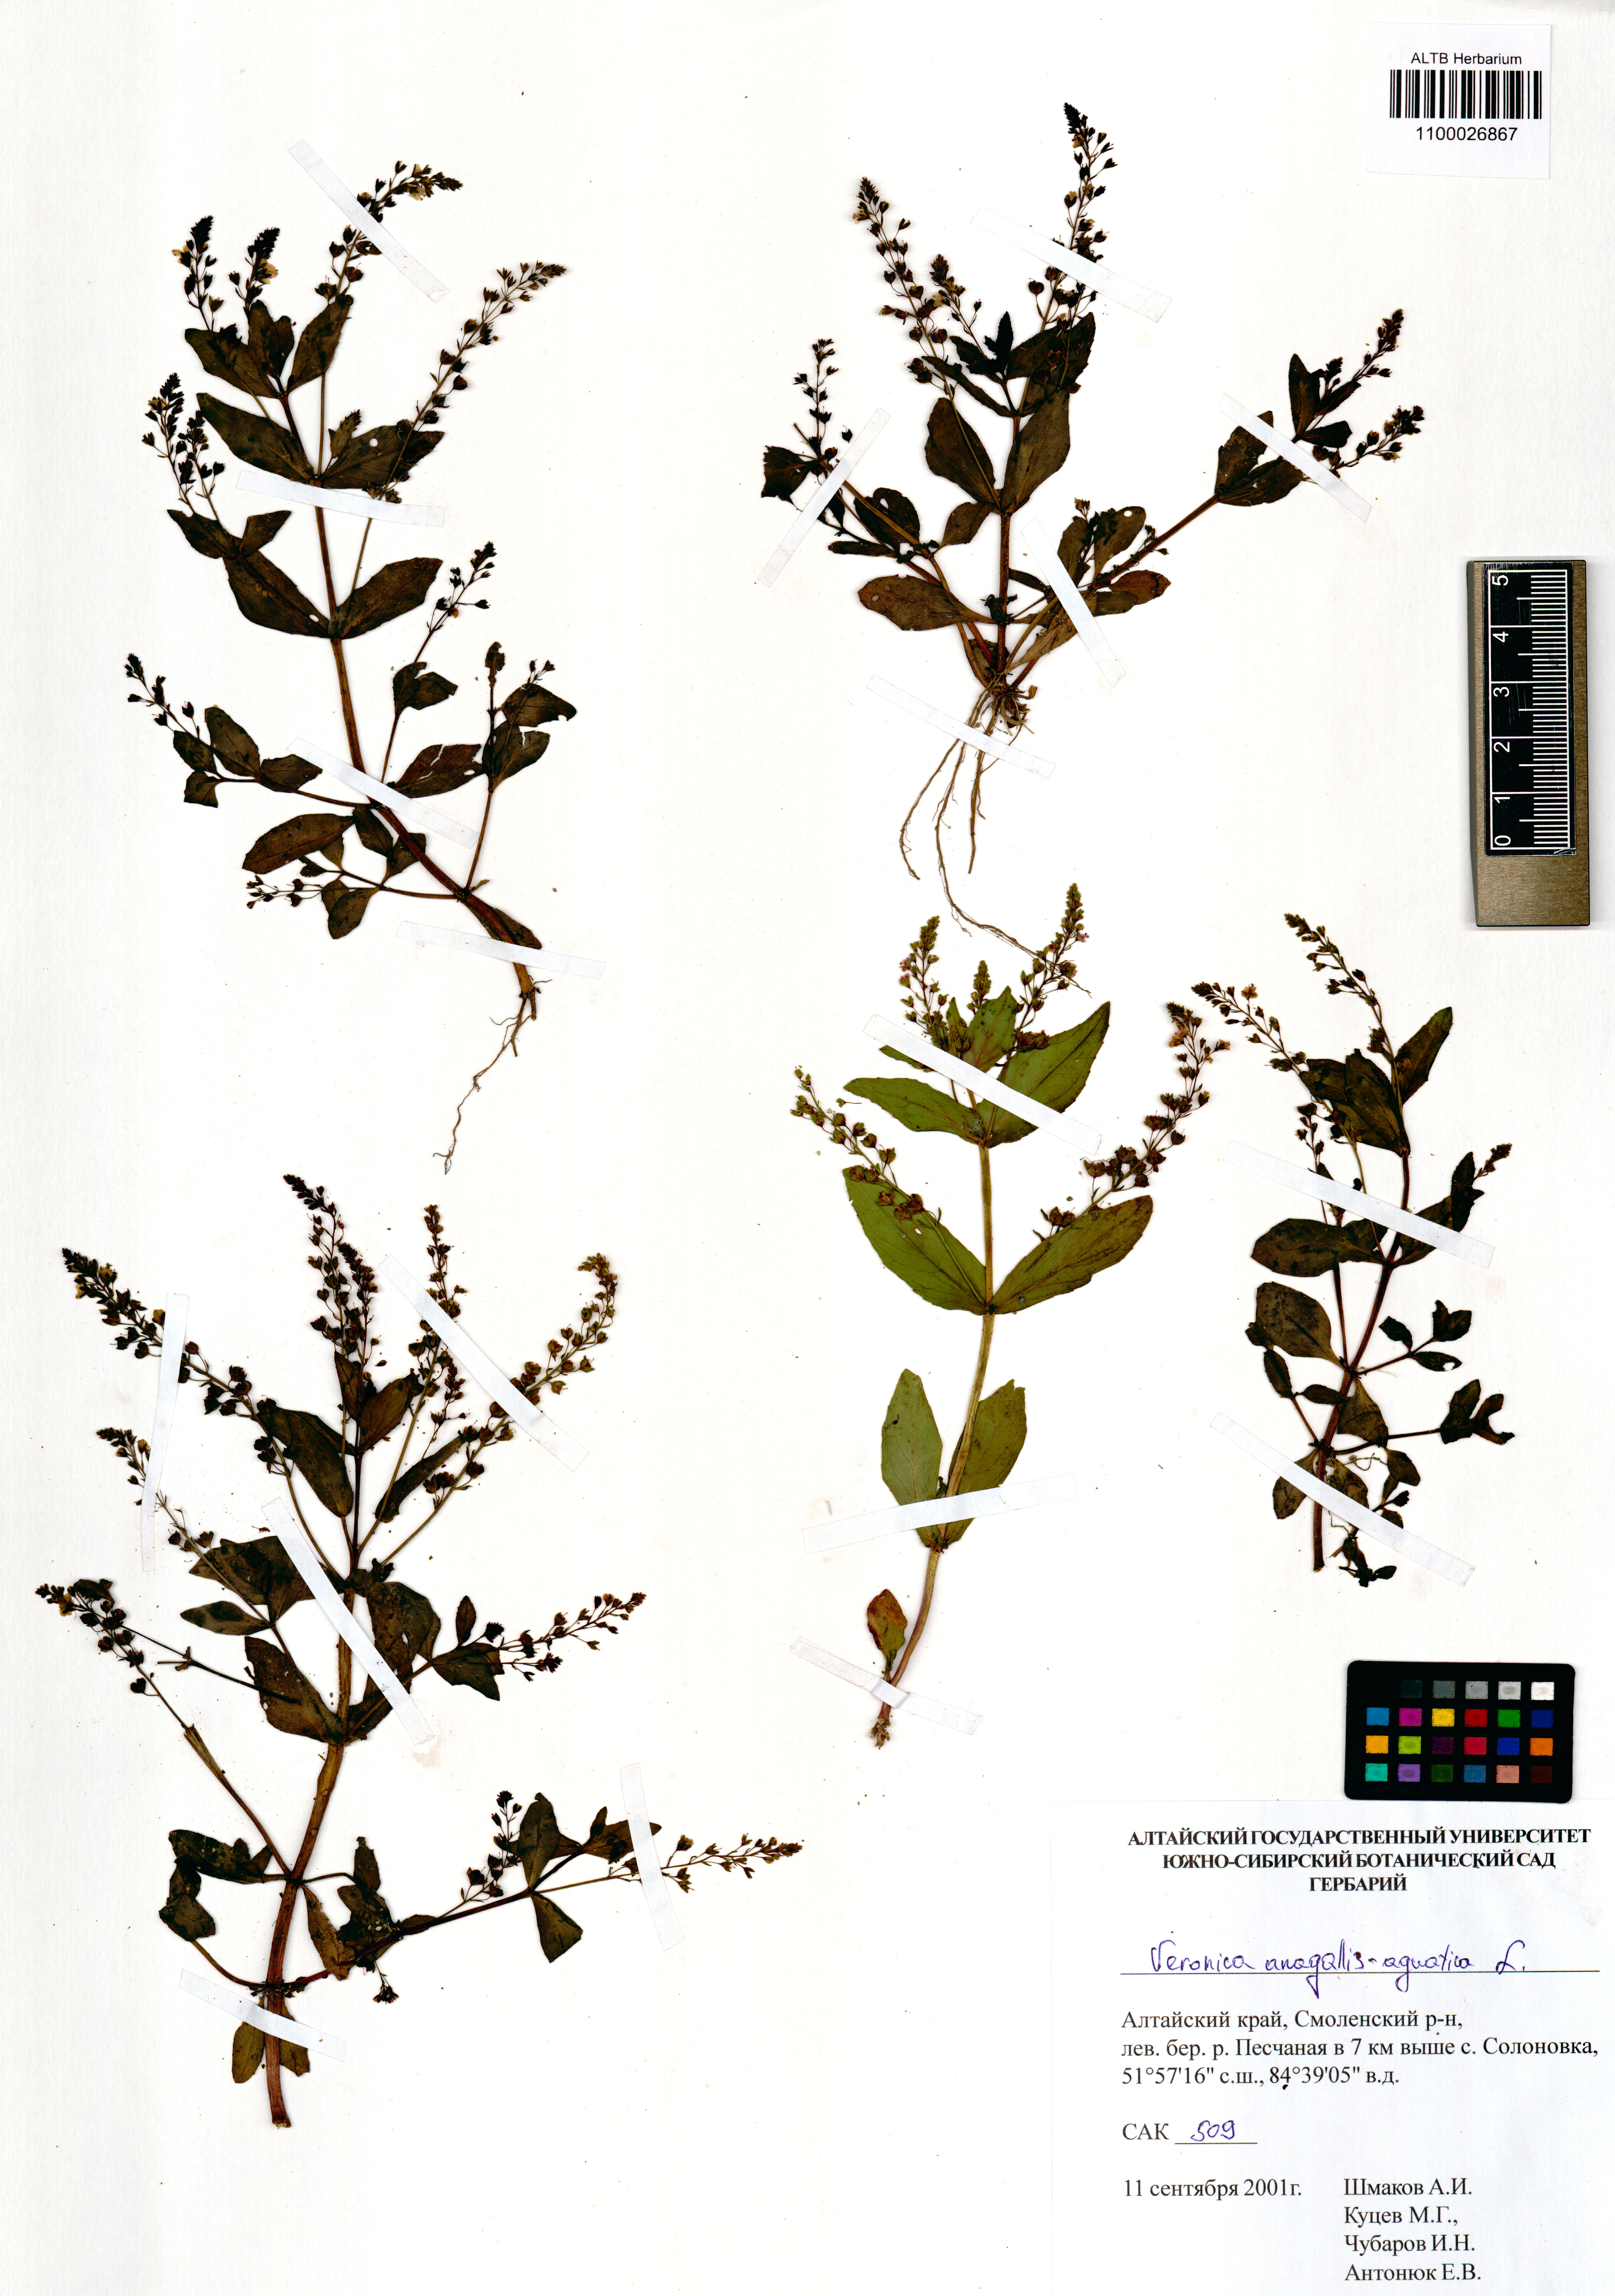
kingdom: Plantae
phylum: Tracheophyta
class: Magnoliopsida
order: Lamiales
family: Plantaginaceae
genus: Veronica
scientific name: Veronica anagallis-aquatica
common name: Water speedwell
